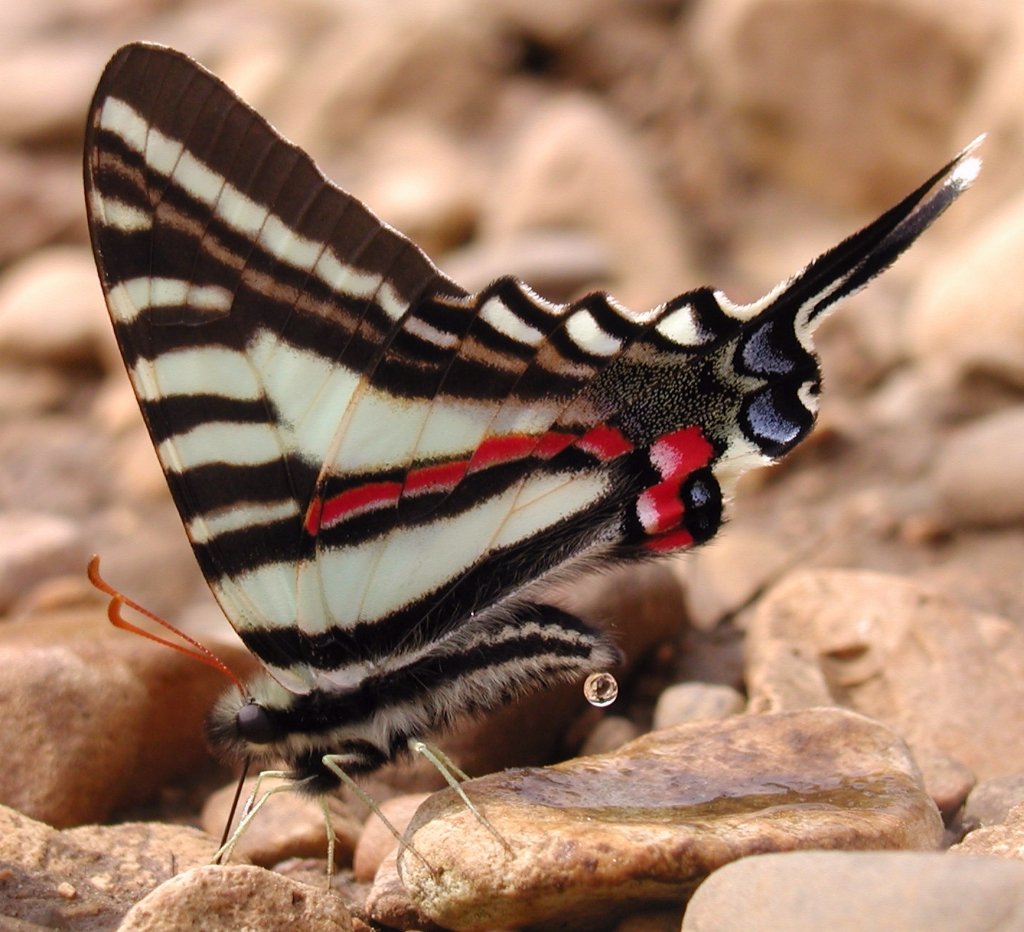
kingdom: Animalia
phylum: Arthropoda
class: Insecta
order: Lepidoptera
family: Papilionidae
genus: Protographium
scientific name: Protographium marcellus
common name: Zebra Swallowtail
